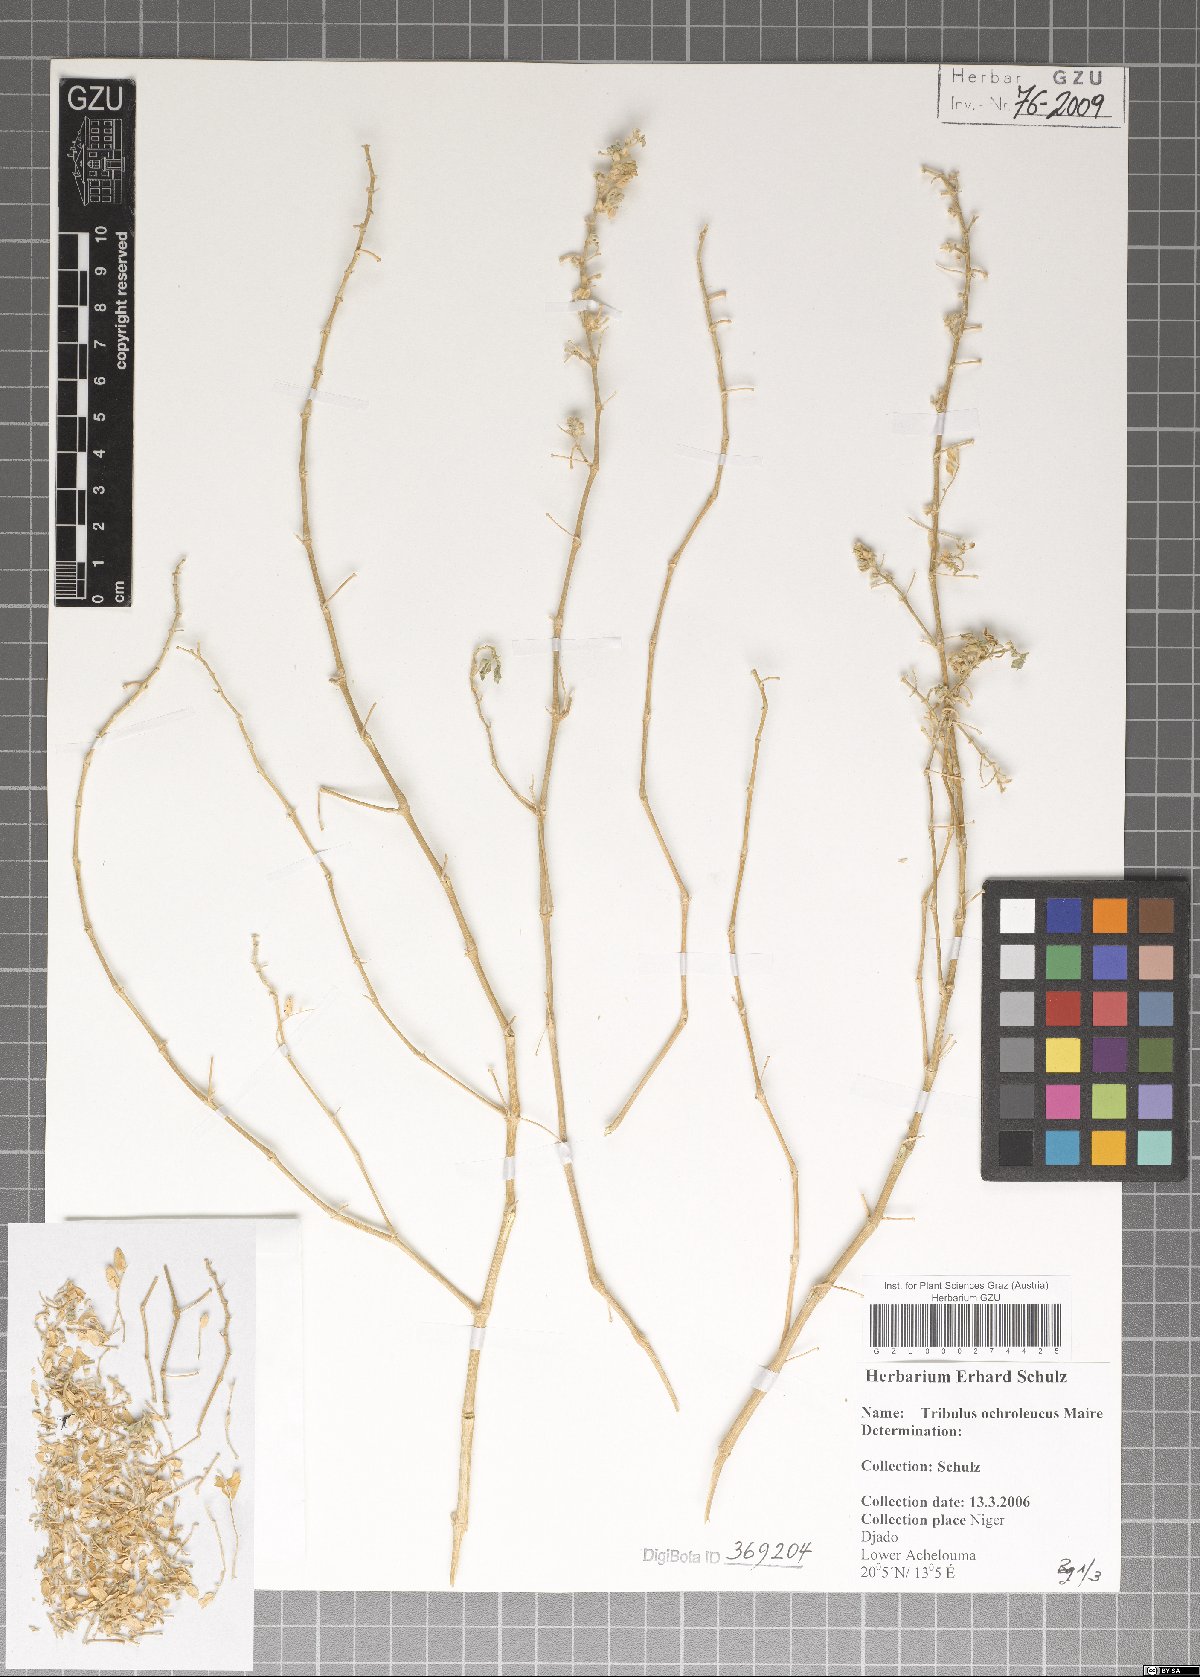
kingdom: Plantae
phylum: Tracheophyta
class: Magnoliopsida
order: Zygophyllales
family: Zygophyllaceae
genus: Tribulus
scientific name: Tribulus ochroleucus
